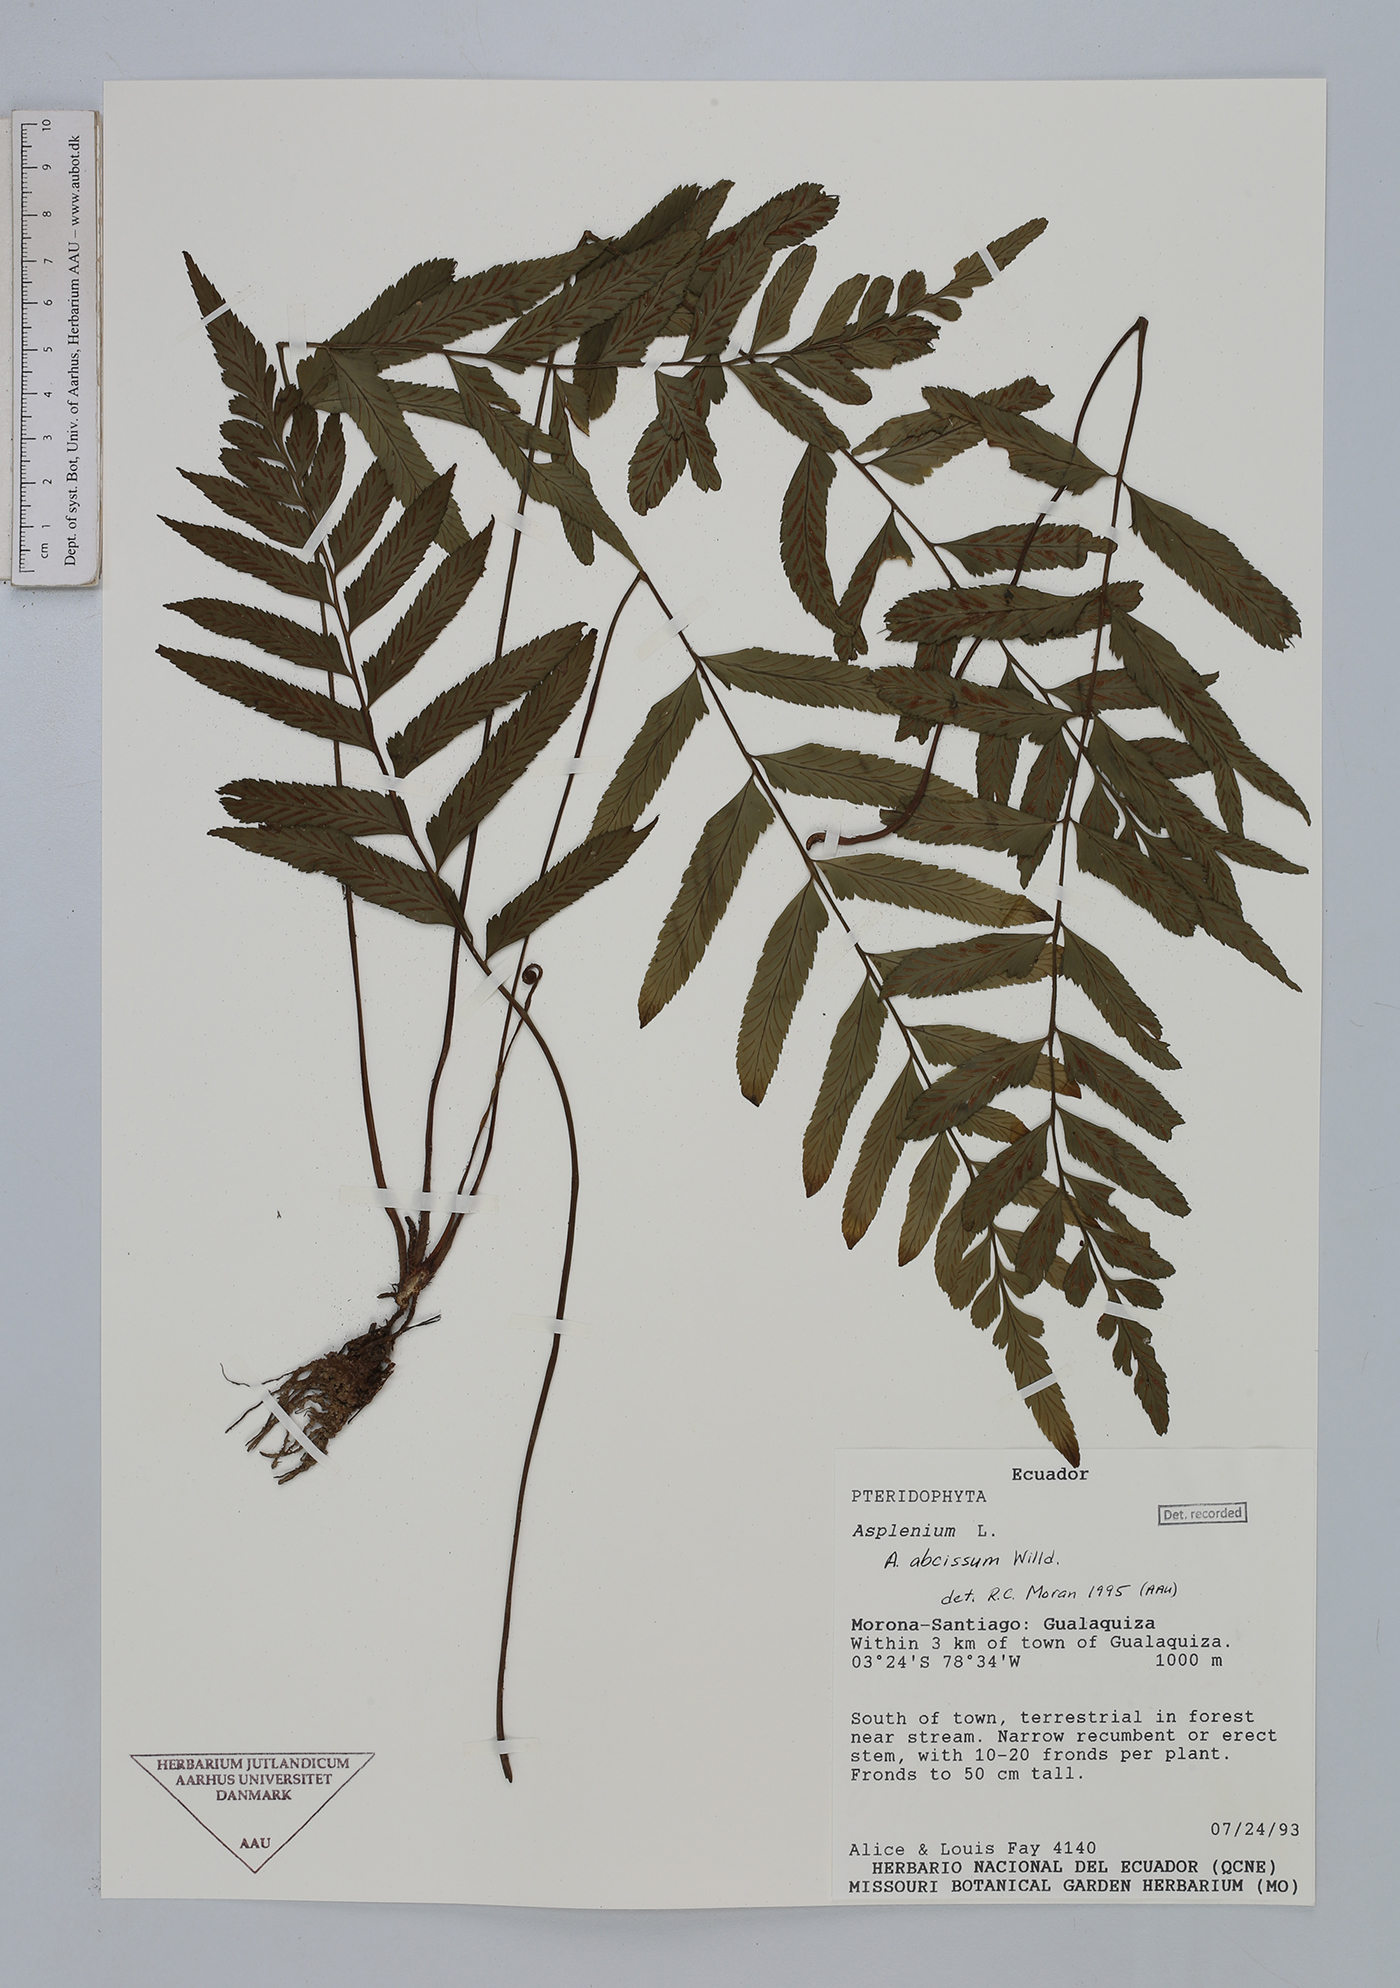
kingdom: Plantae
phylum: Tracheophyta
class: Polypodiopsida
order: Polypodiales
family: Aspleniaceae
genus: Asplenium
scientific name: Asplenium abscissum
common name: Cutleaf spleenwort
